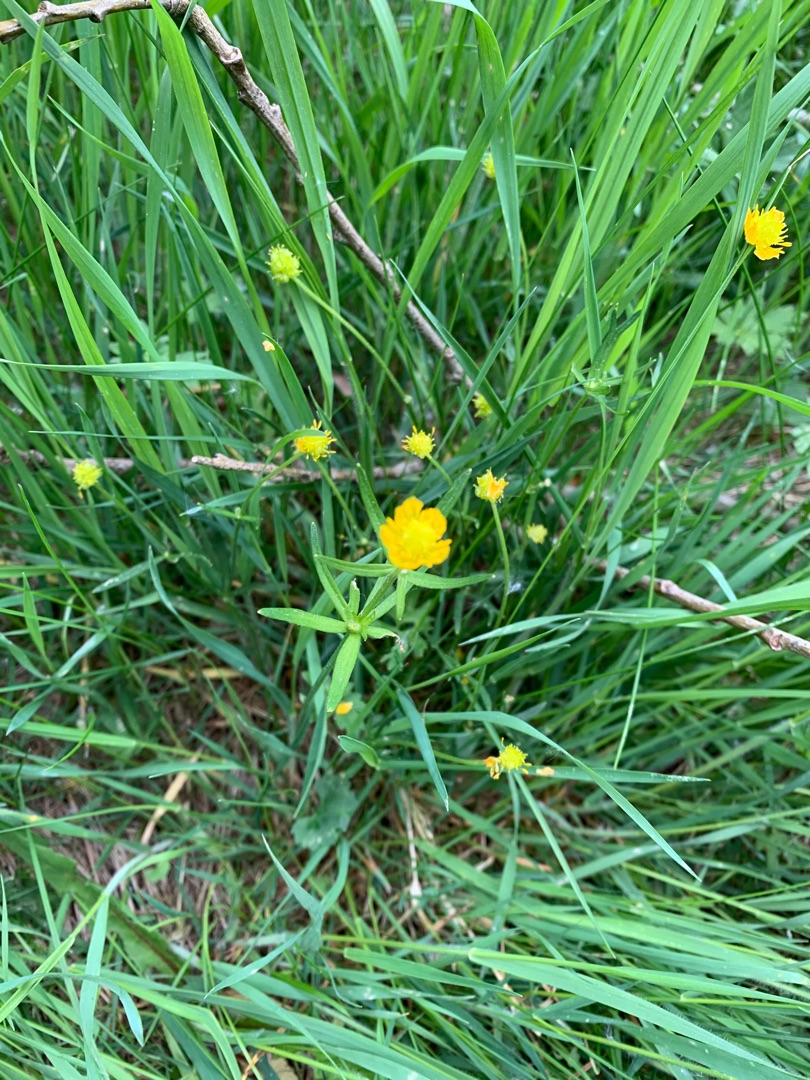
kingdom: Plantae
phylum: Tracheophyta
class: Magnoliopsida
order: Ranunculales
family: Ranunculaceae
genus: Ranunculus
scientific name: Ranunculus auricomus
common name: Nyrebladet ranunkel
